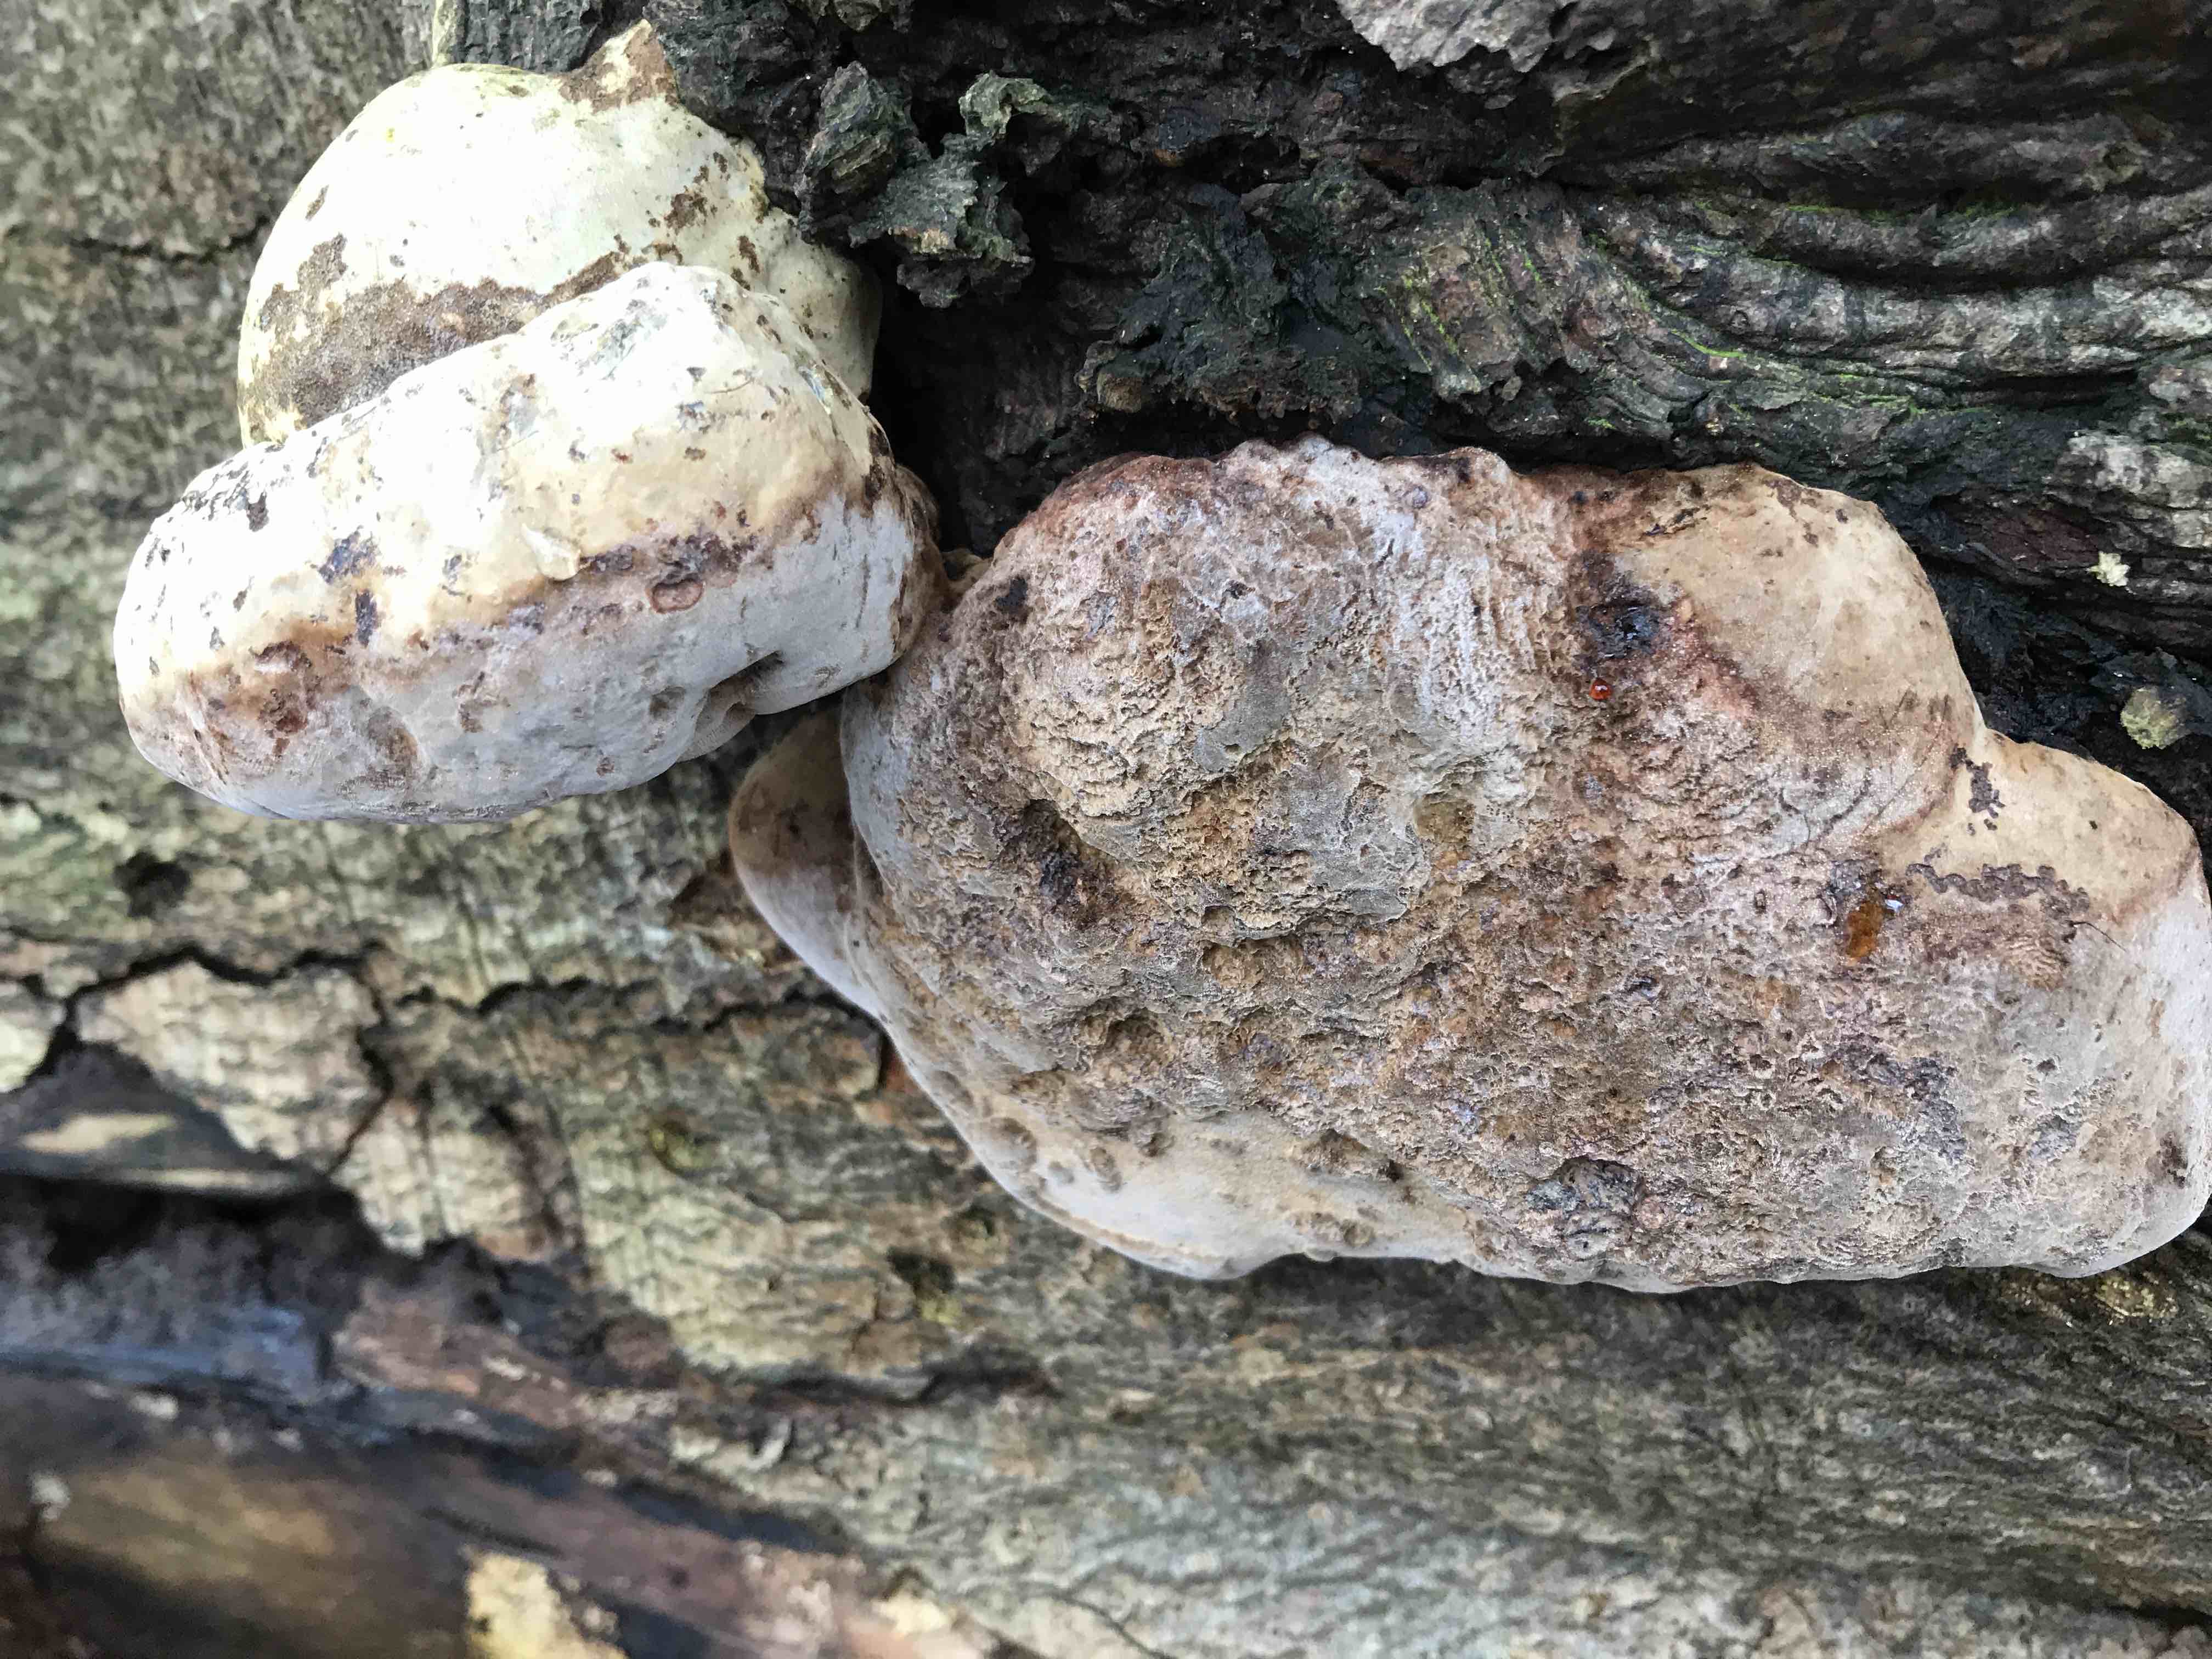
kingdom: Fungi
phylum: Basidiomycota
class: Agaricomycetes
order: Polyporales
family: Polyporaceae
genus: Fomes
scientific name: Fomes fomentarius
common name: tøndersvamp
